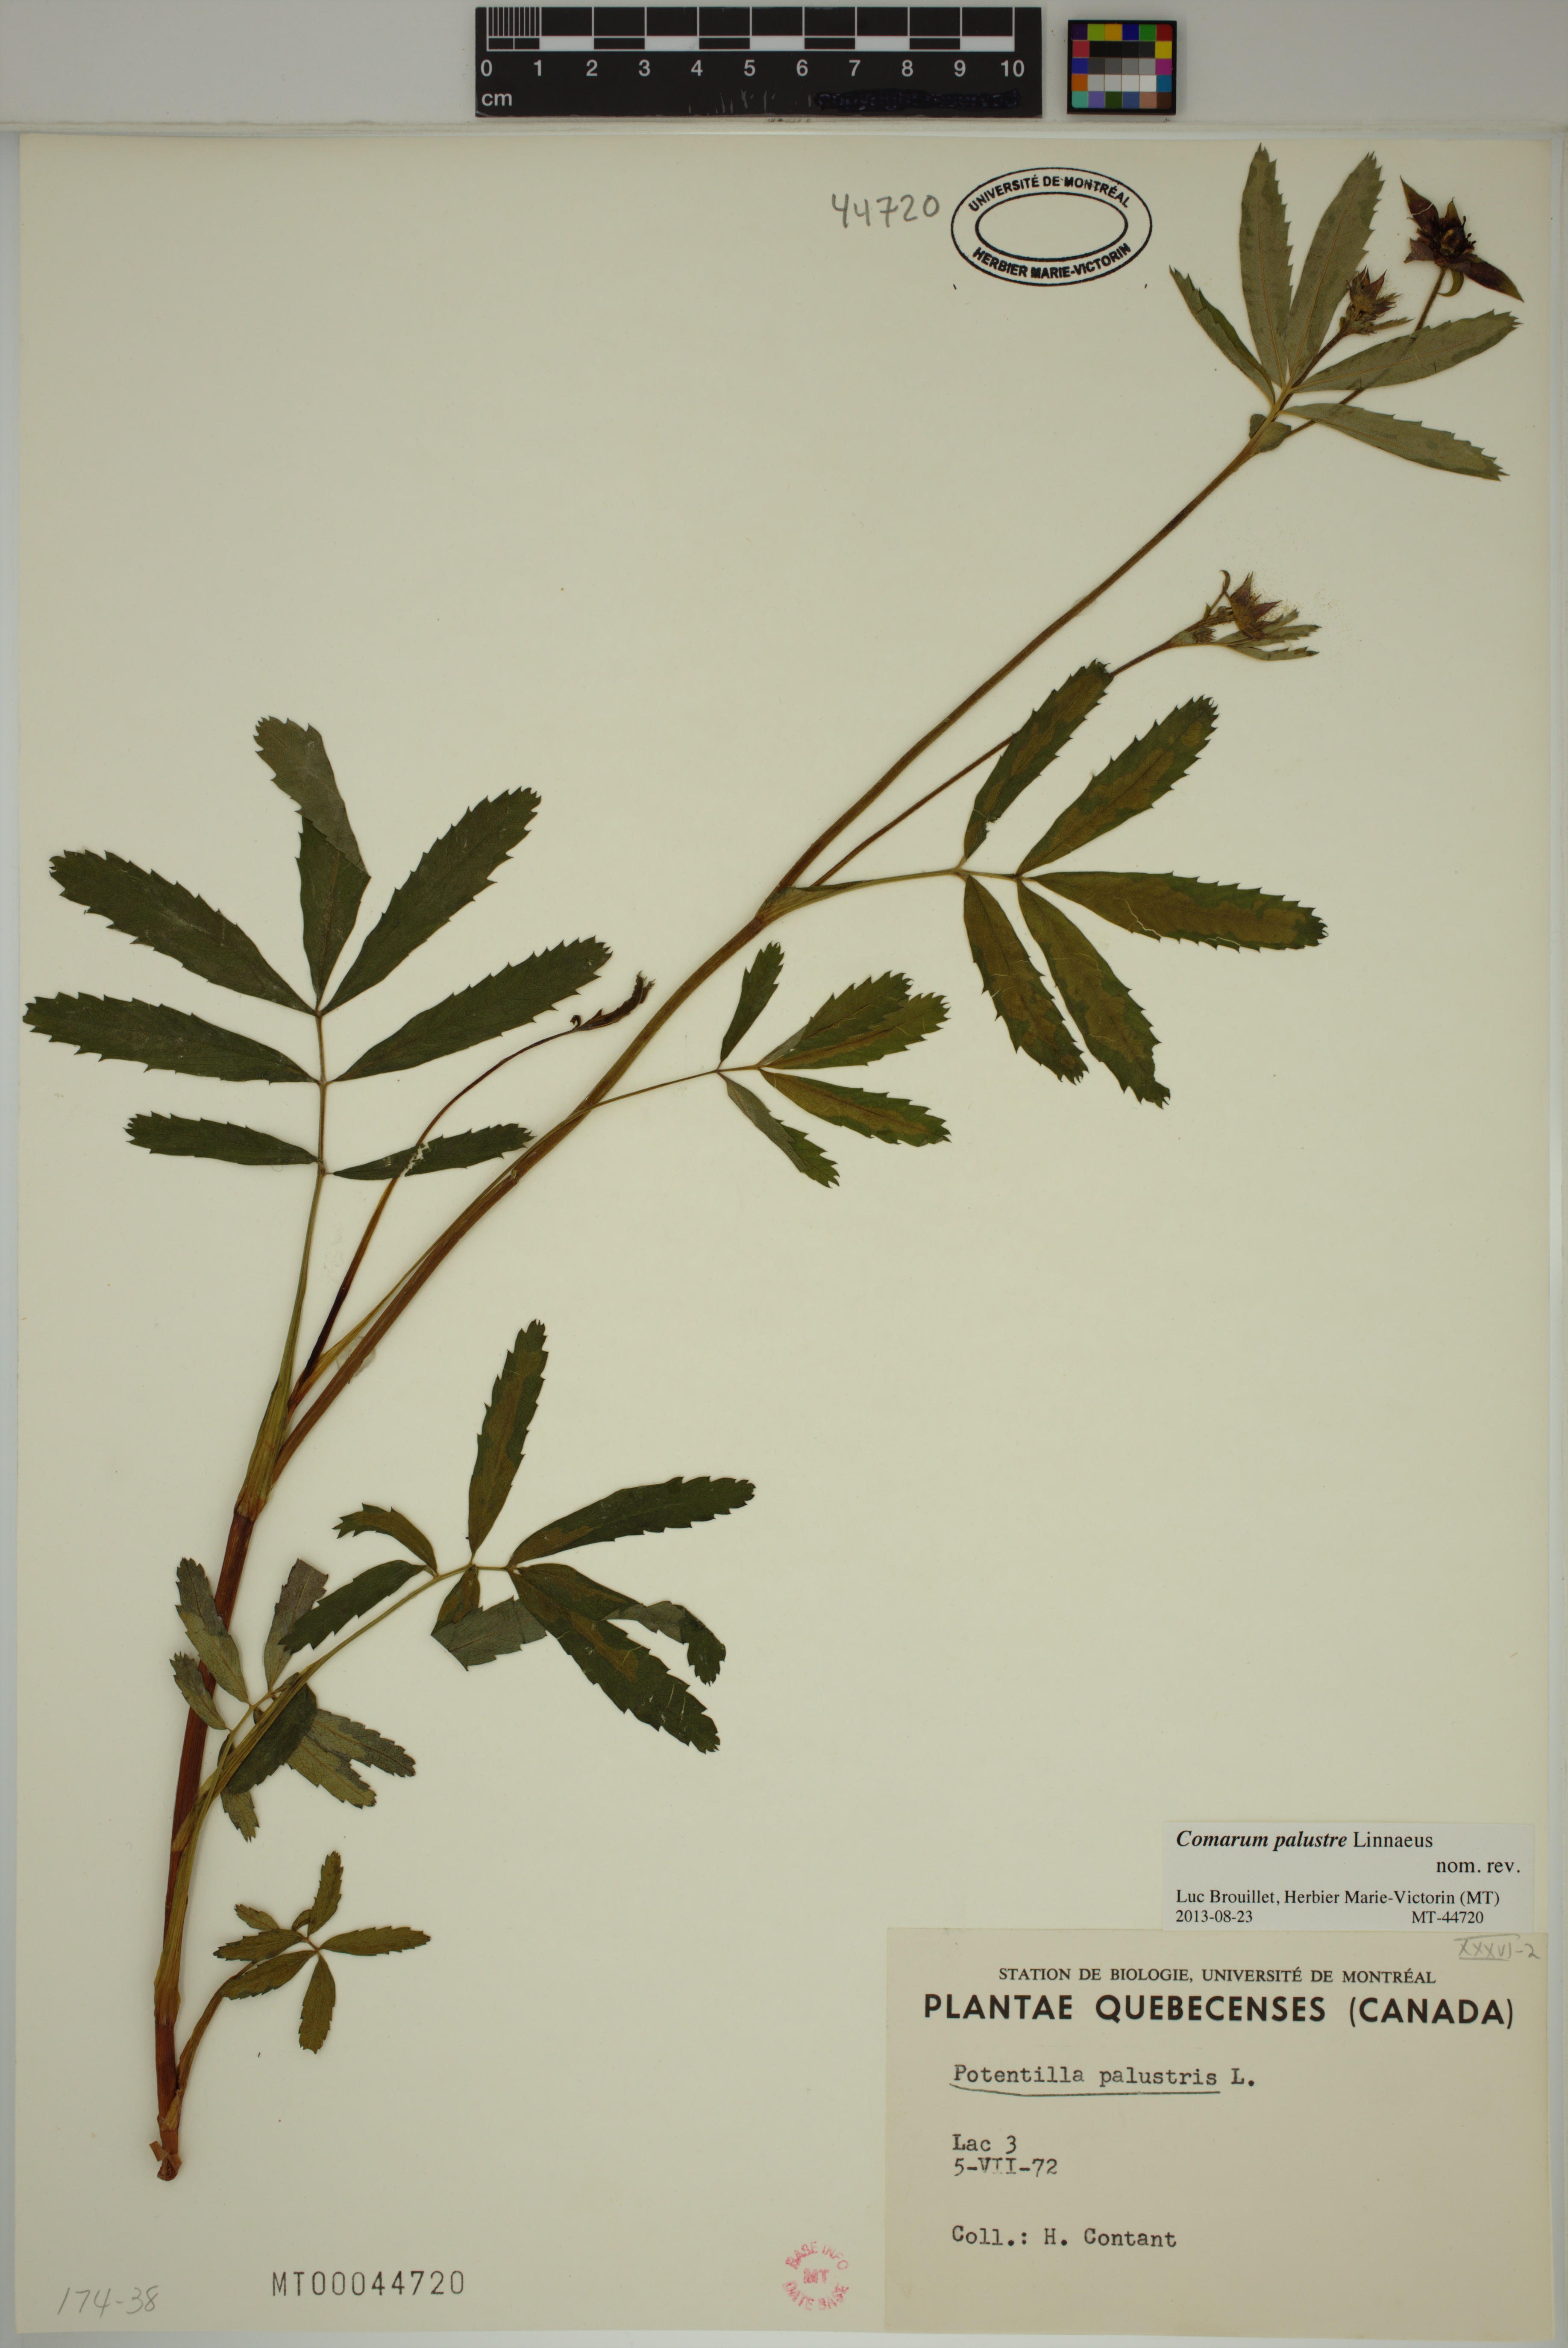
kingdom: Plantae
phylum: Tracheophyta
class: Magnoliopsida
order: Rosales
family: Rosaceae
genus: Comarum
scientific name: Comarum palustre
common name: Marsh cinquefoil
